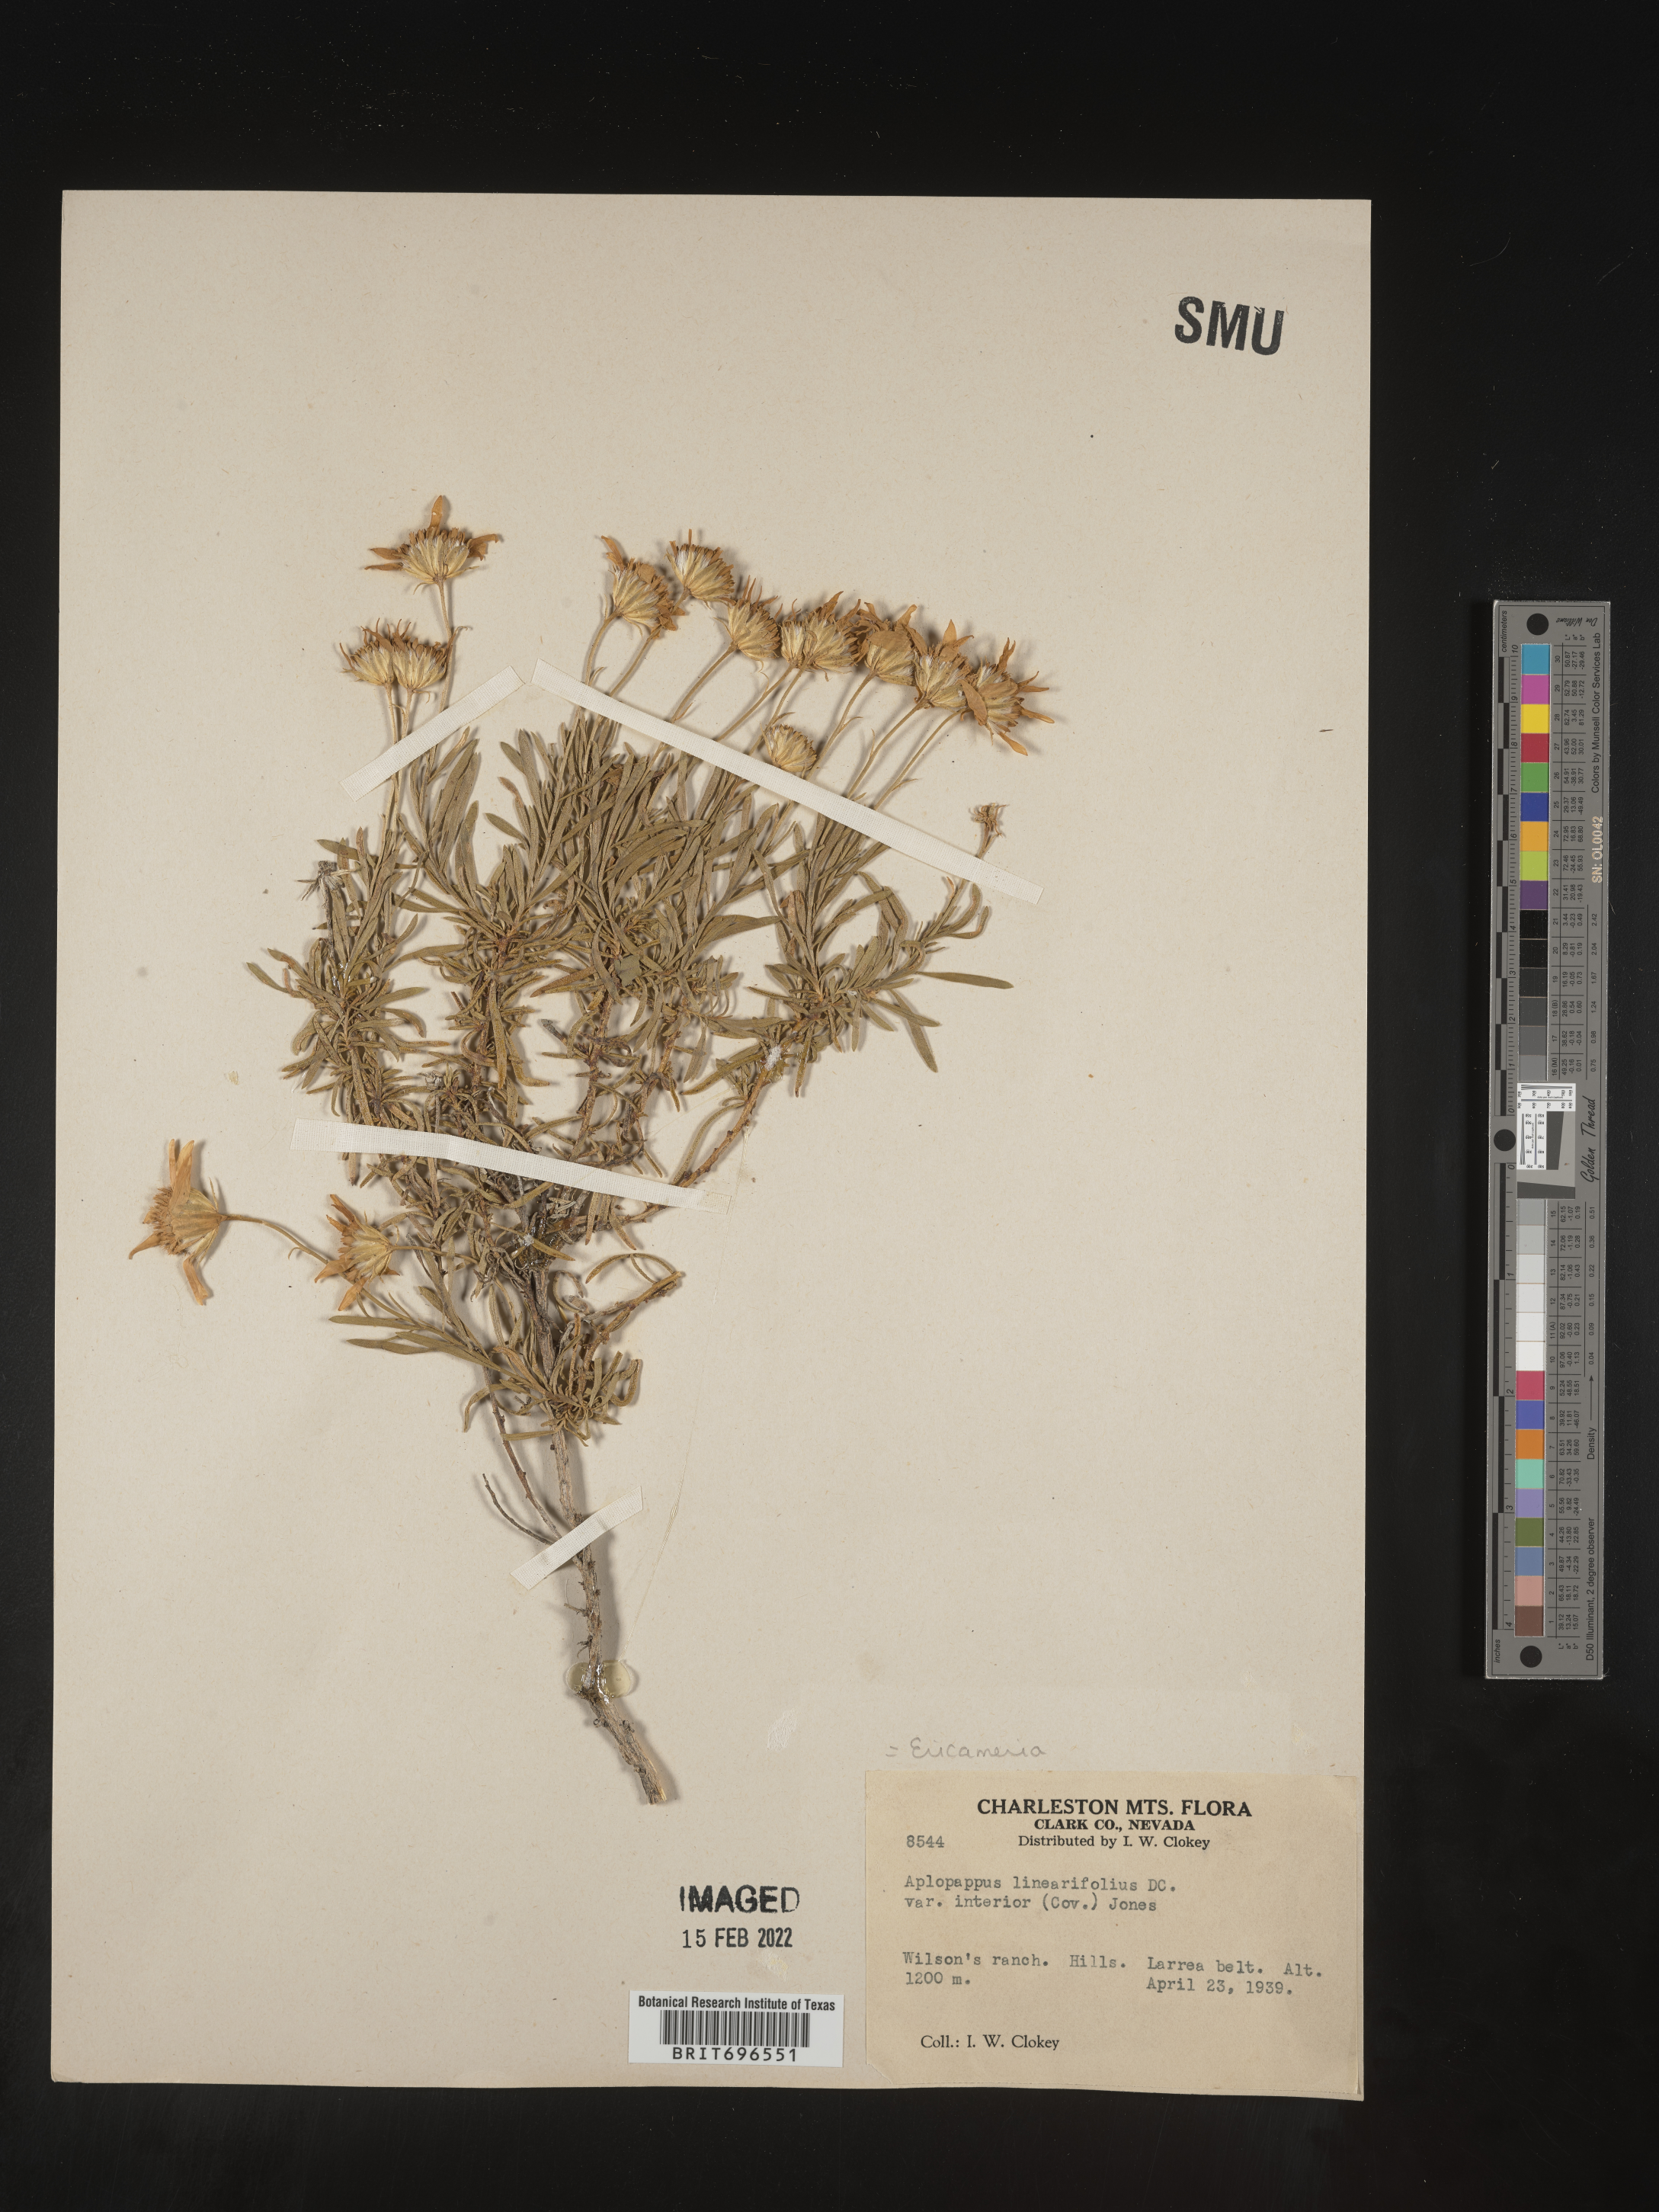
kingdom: Plantae
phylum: Tracheophyta
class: Magnoliopsida
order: Asterales
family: Asteraceae
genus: Ericameria
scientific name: Ericameria linearifolia
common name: Interior goldenbush
